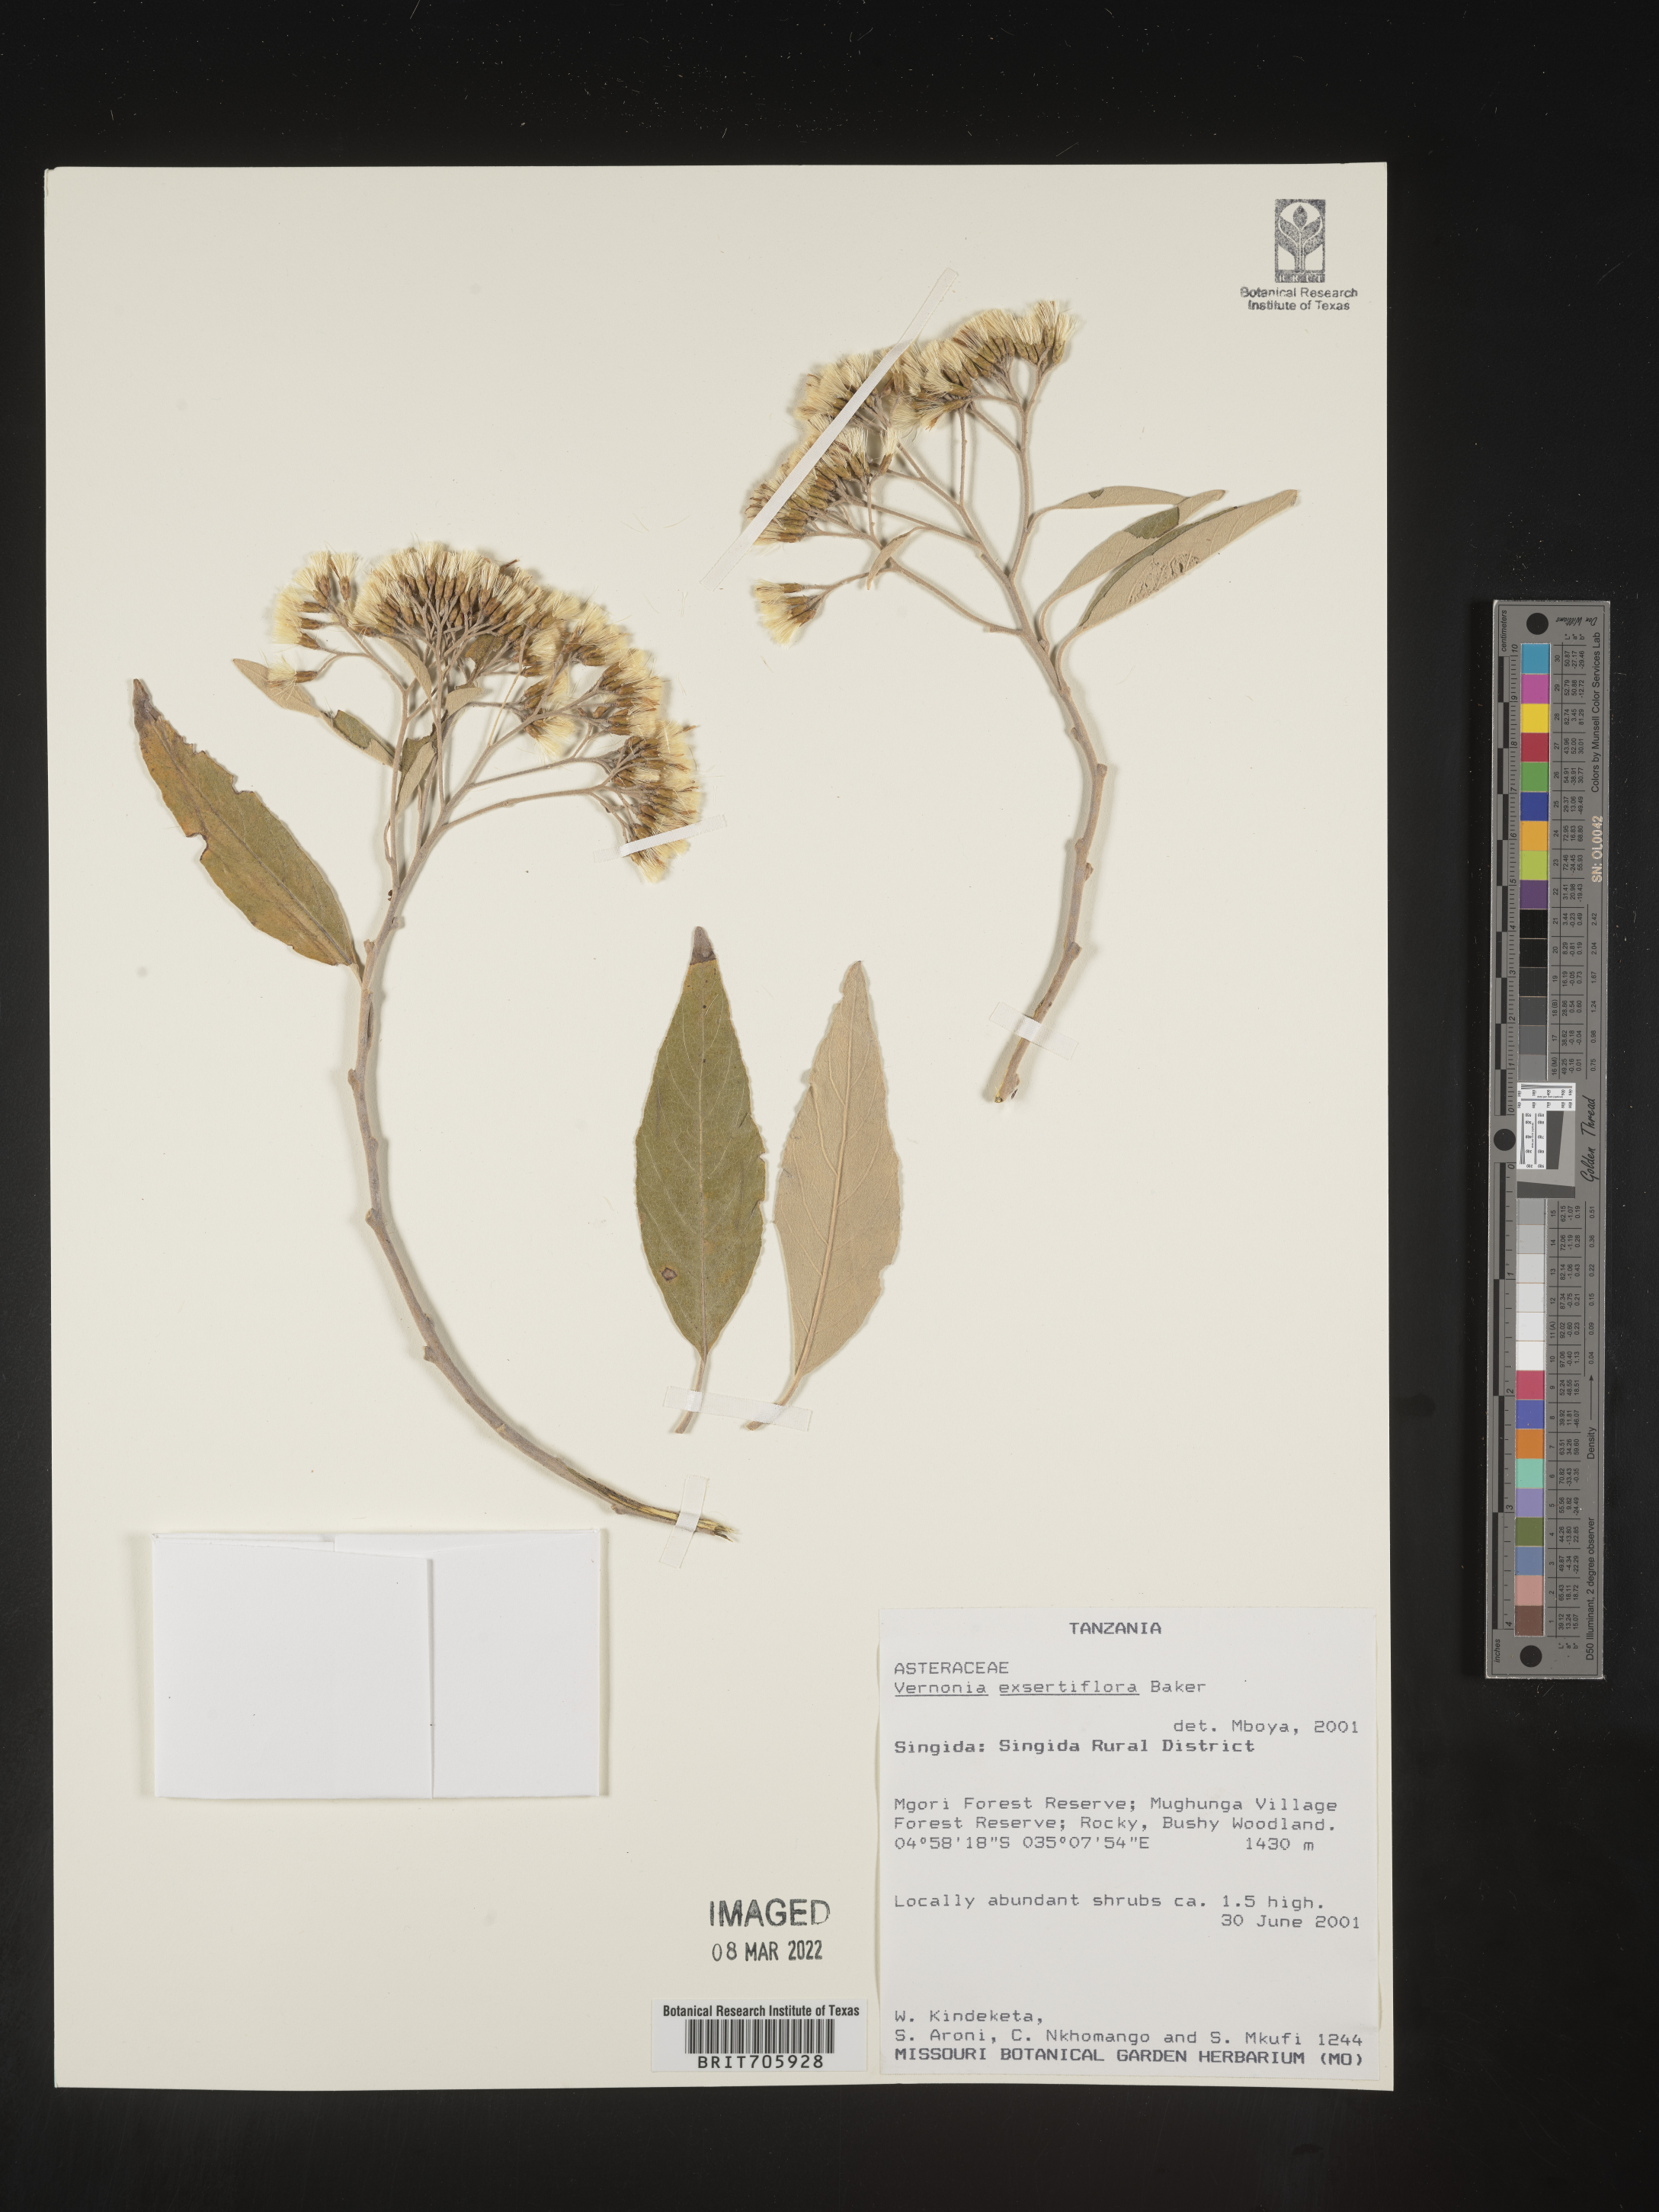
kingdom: Plantae
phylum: Tracheophyta
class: Magnoliopsida
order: Asterales
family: Asteraceae
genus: Vernonia
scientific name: Vernonia
